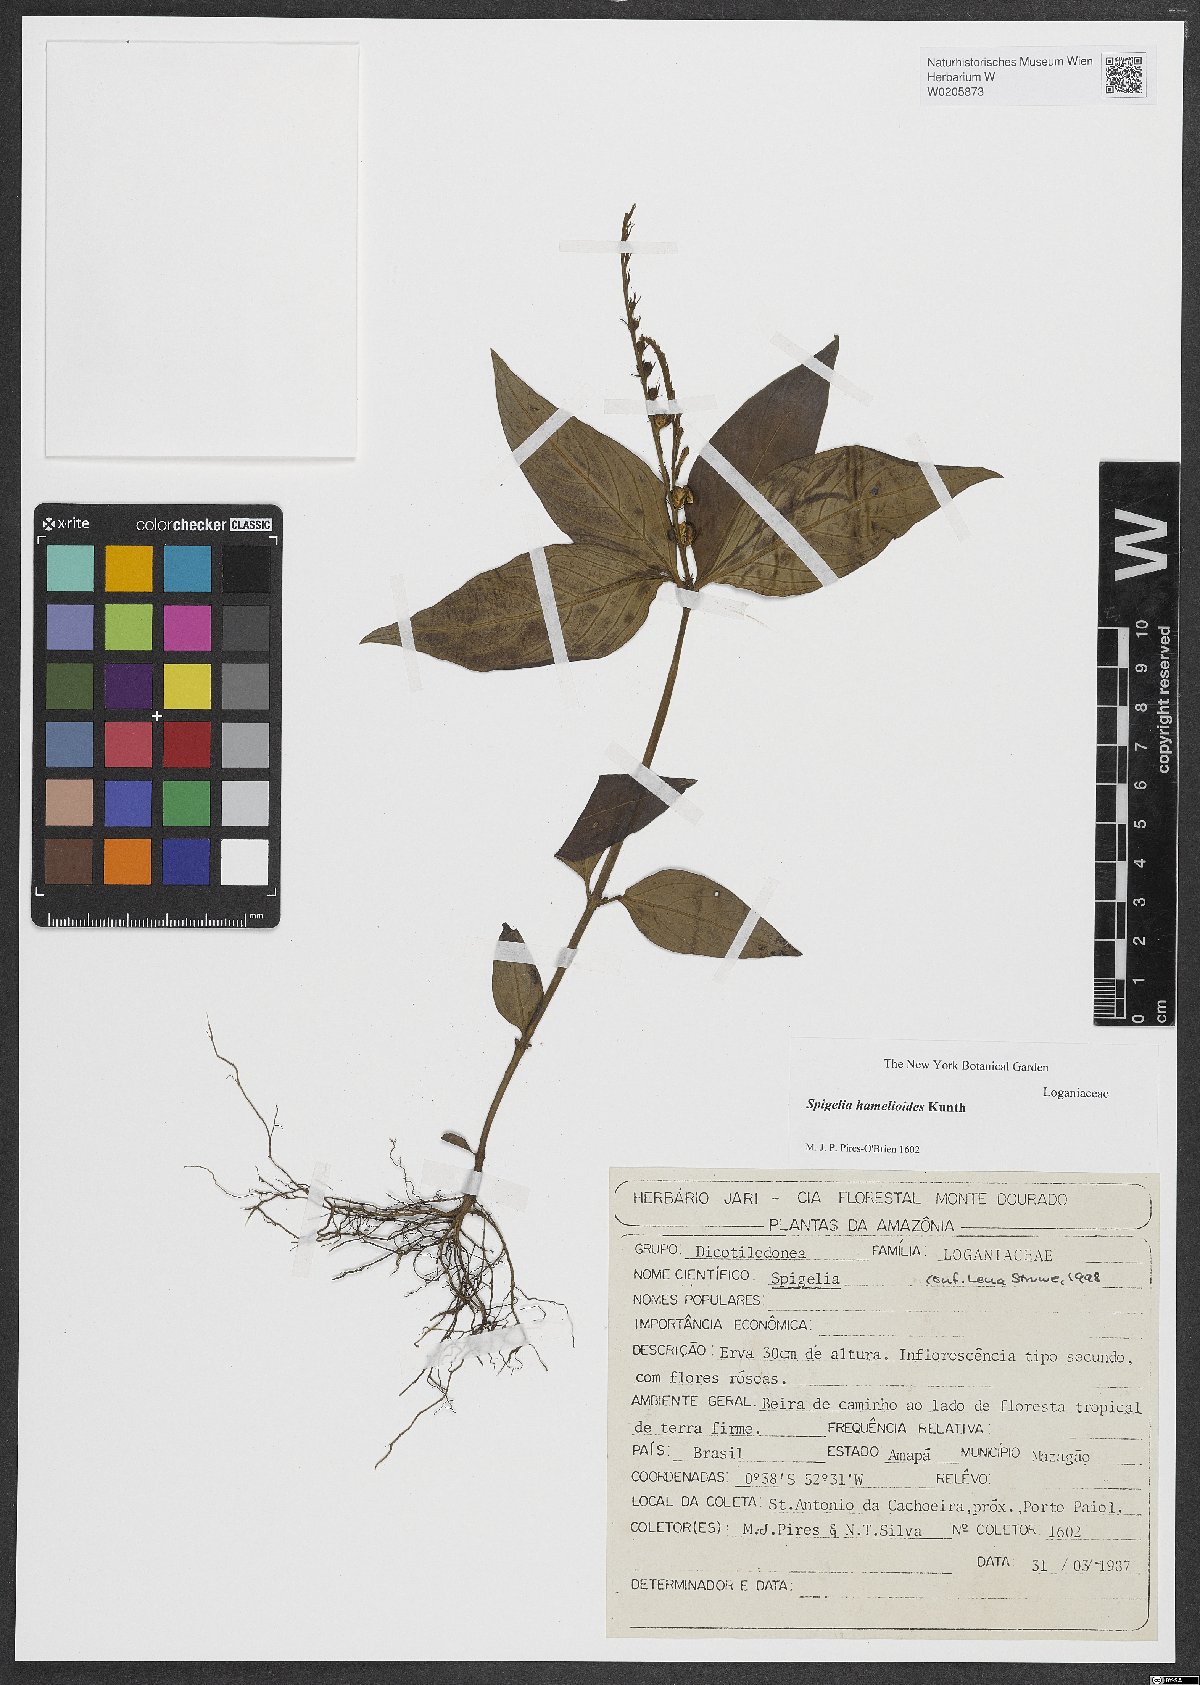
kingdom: Plantae
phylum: Tracheophyta
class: Magnoliopsida
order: Gentianales
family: Loganiaceae
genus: Spigelia
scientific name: Spigelia hamellioides
